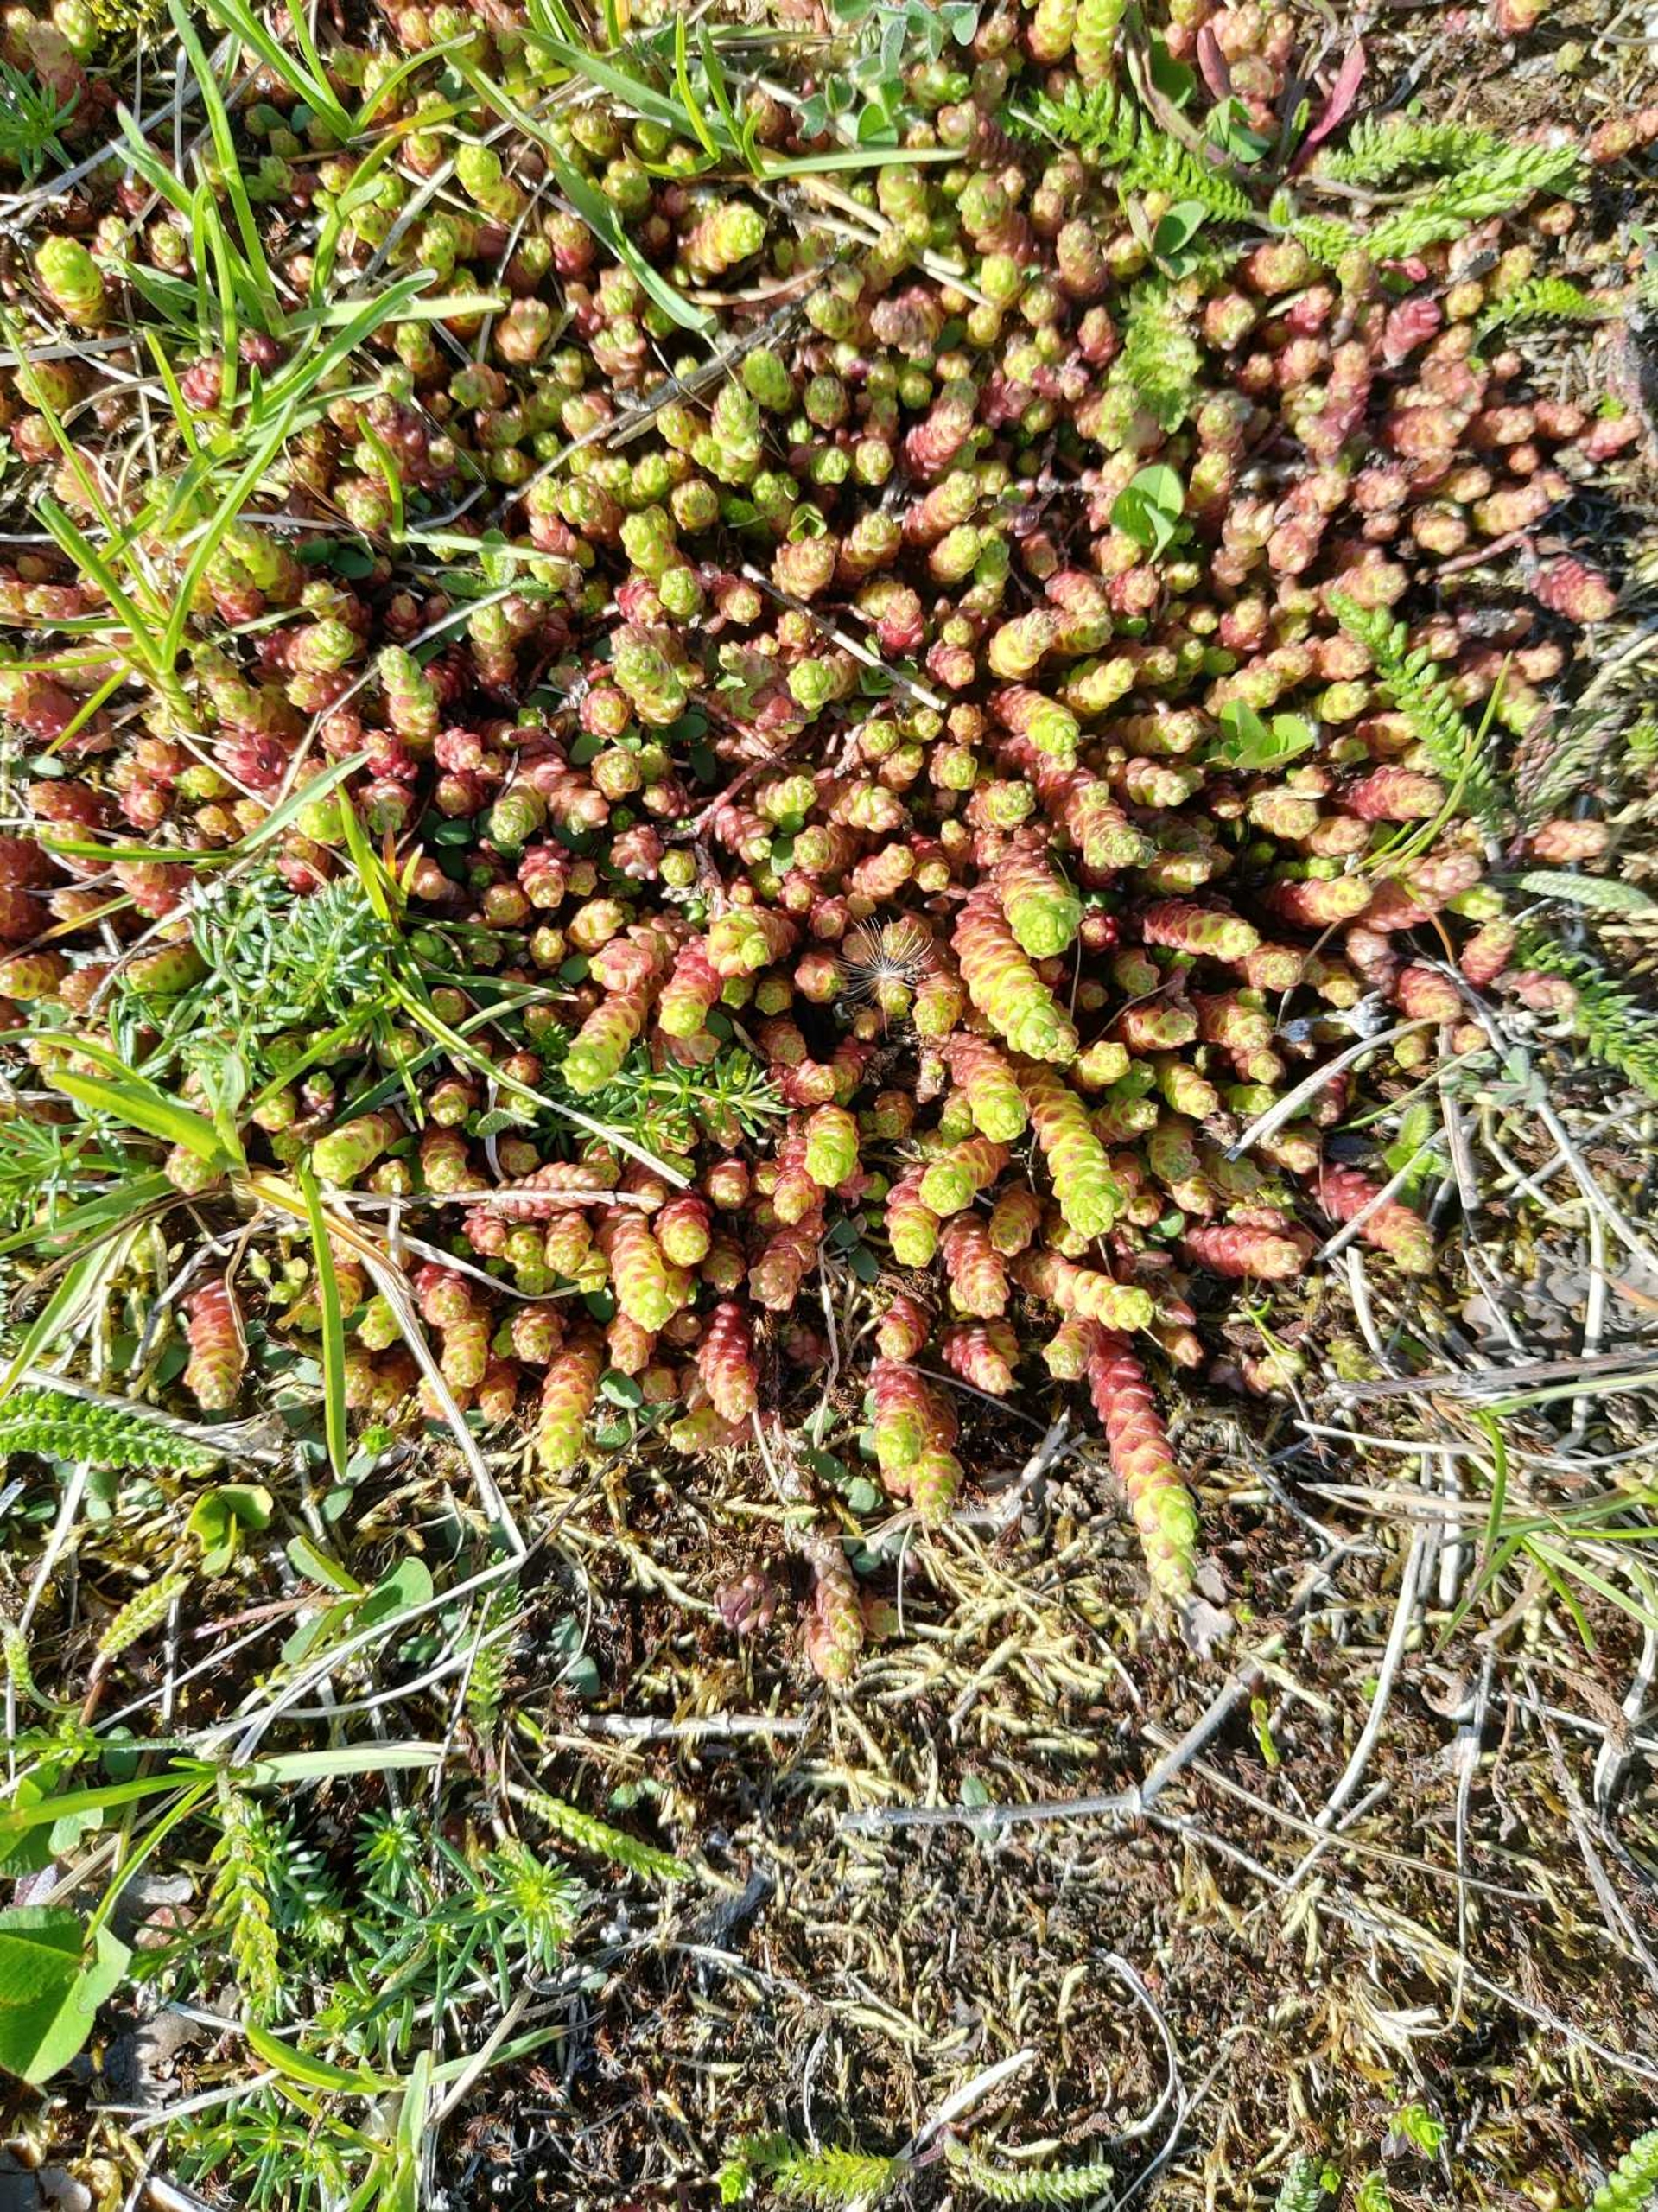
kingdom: Plantae
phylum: Tracheophyta
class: Magnoliopsida
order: Saxifragales
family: Crassulaceae
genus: Sedum
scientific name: Sedum acre
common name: Bidende stenurt
